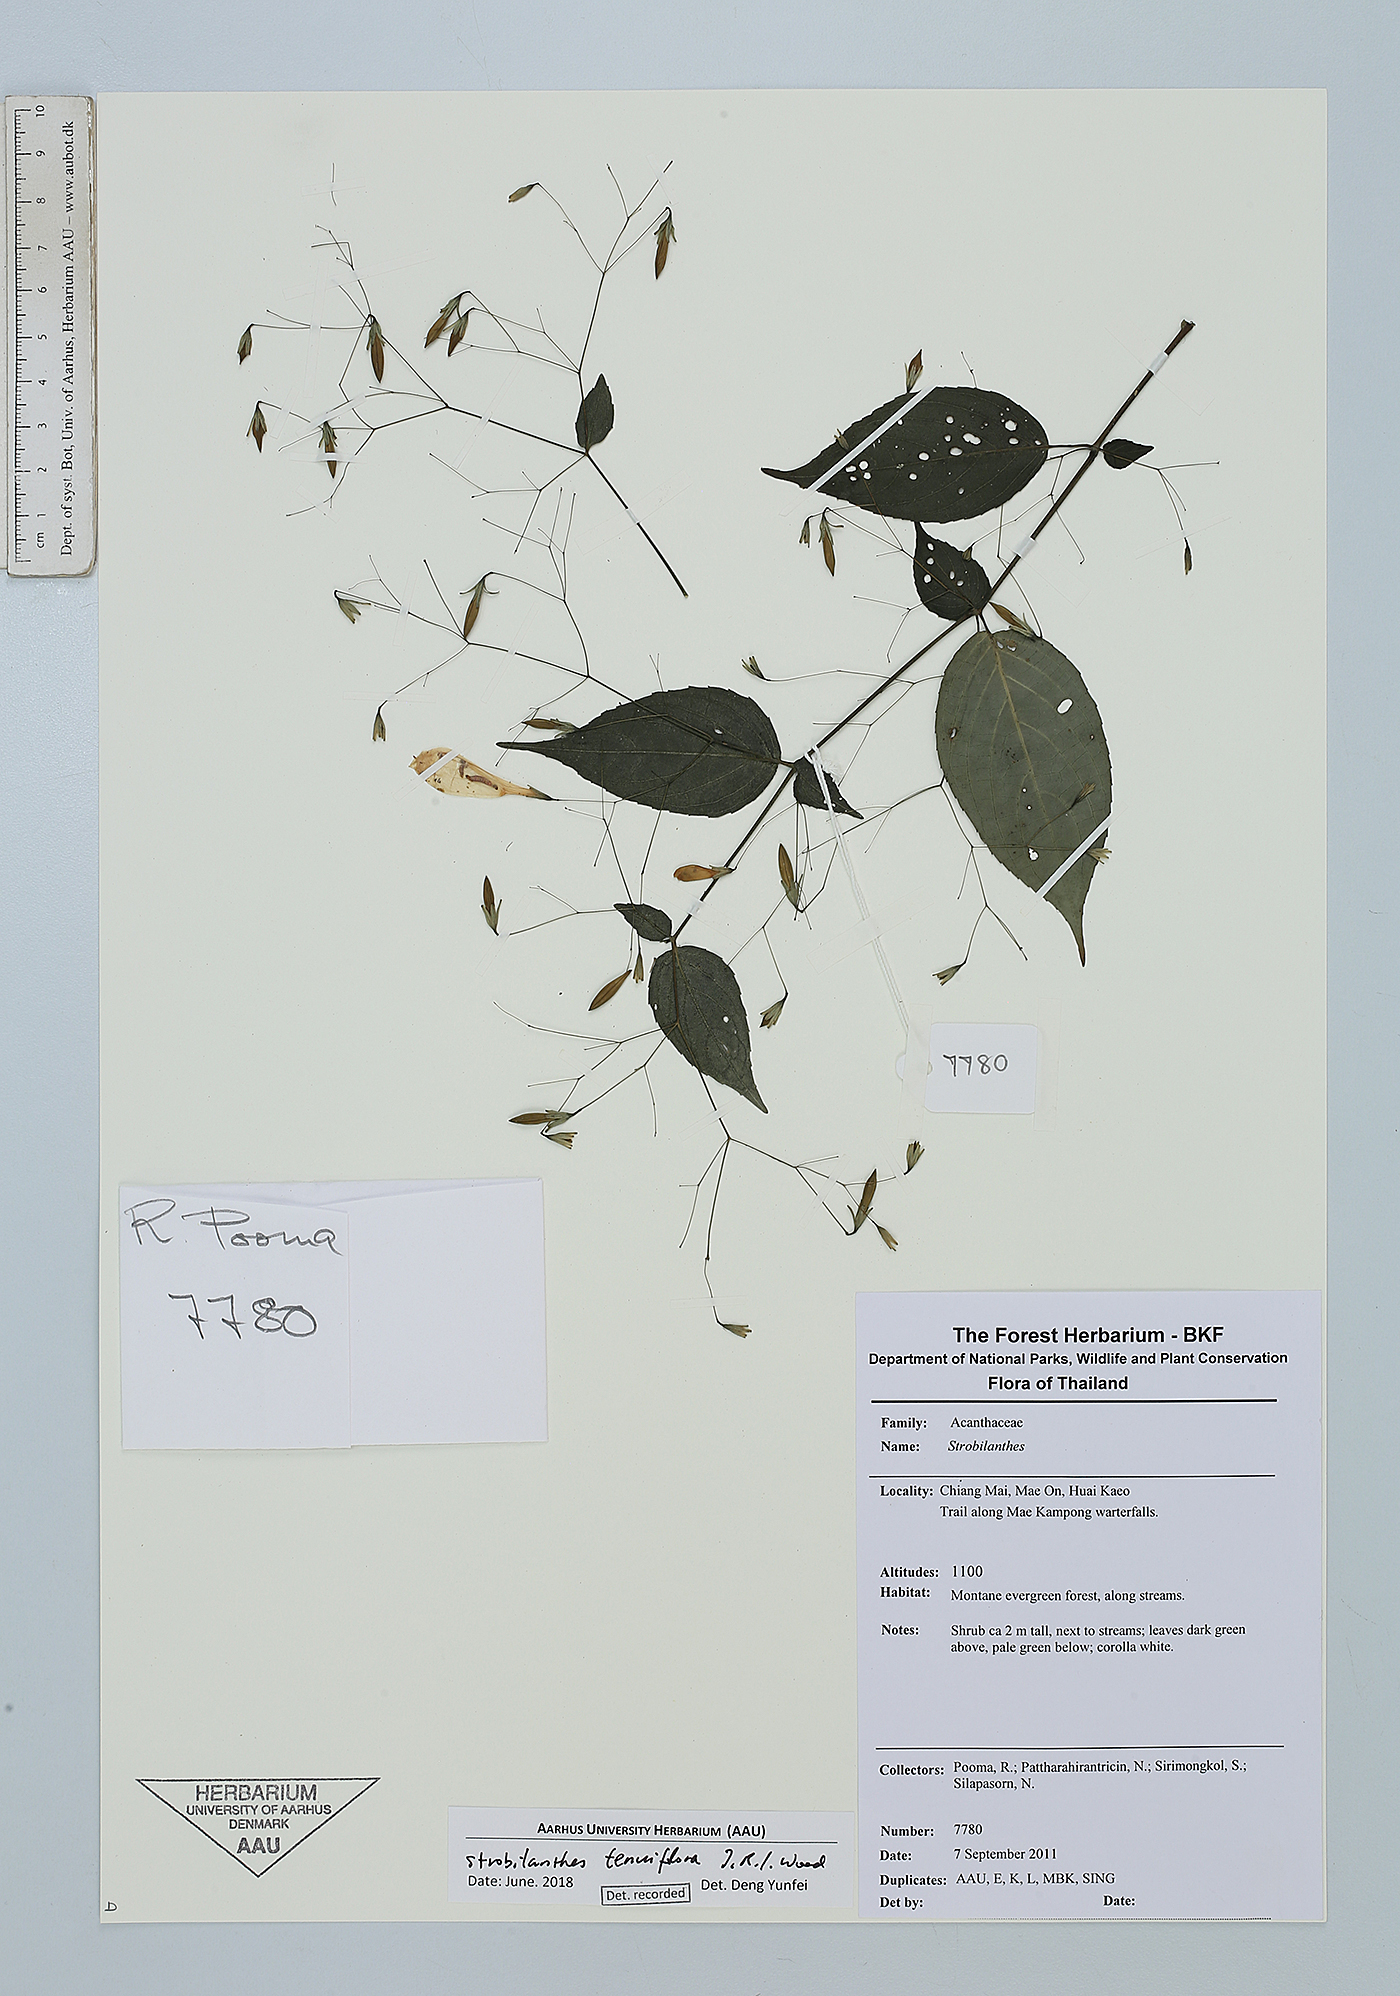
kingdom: Plantae
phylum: Tracheophyta
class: Magnoliopsida
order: Lamiales
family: Acanthaceae
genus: Strobilanthes
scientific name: Strobilanthes tenuiflora
